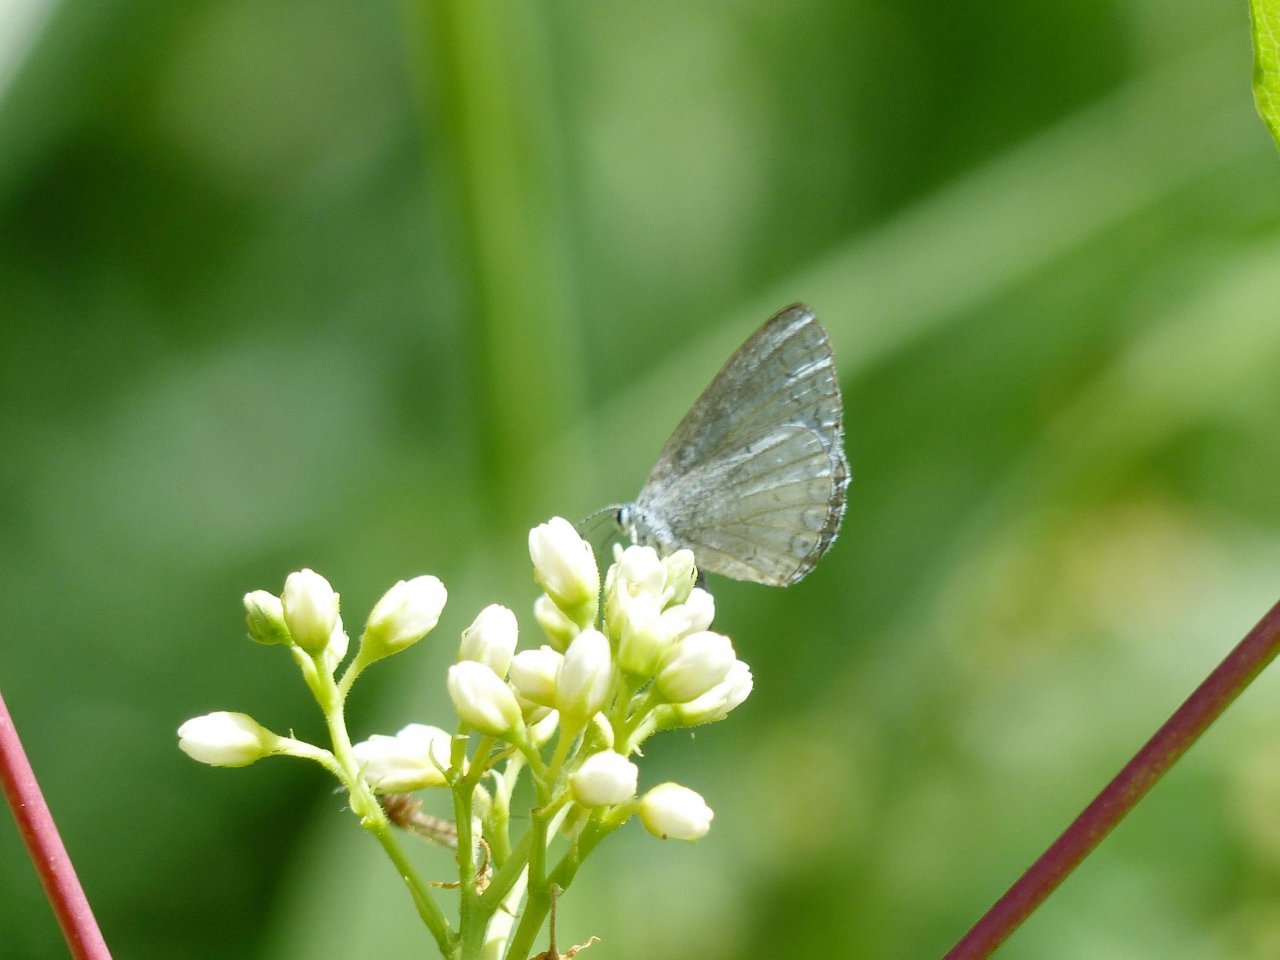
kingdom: Animalia
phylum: Arthropoda
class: Insecta
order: Lepidoptera
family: Lycaenidae
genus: Celastrina
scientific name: Celastrina
